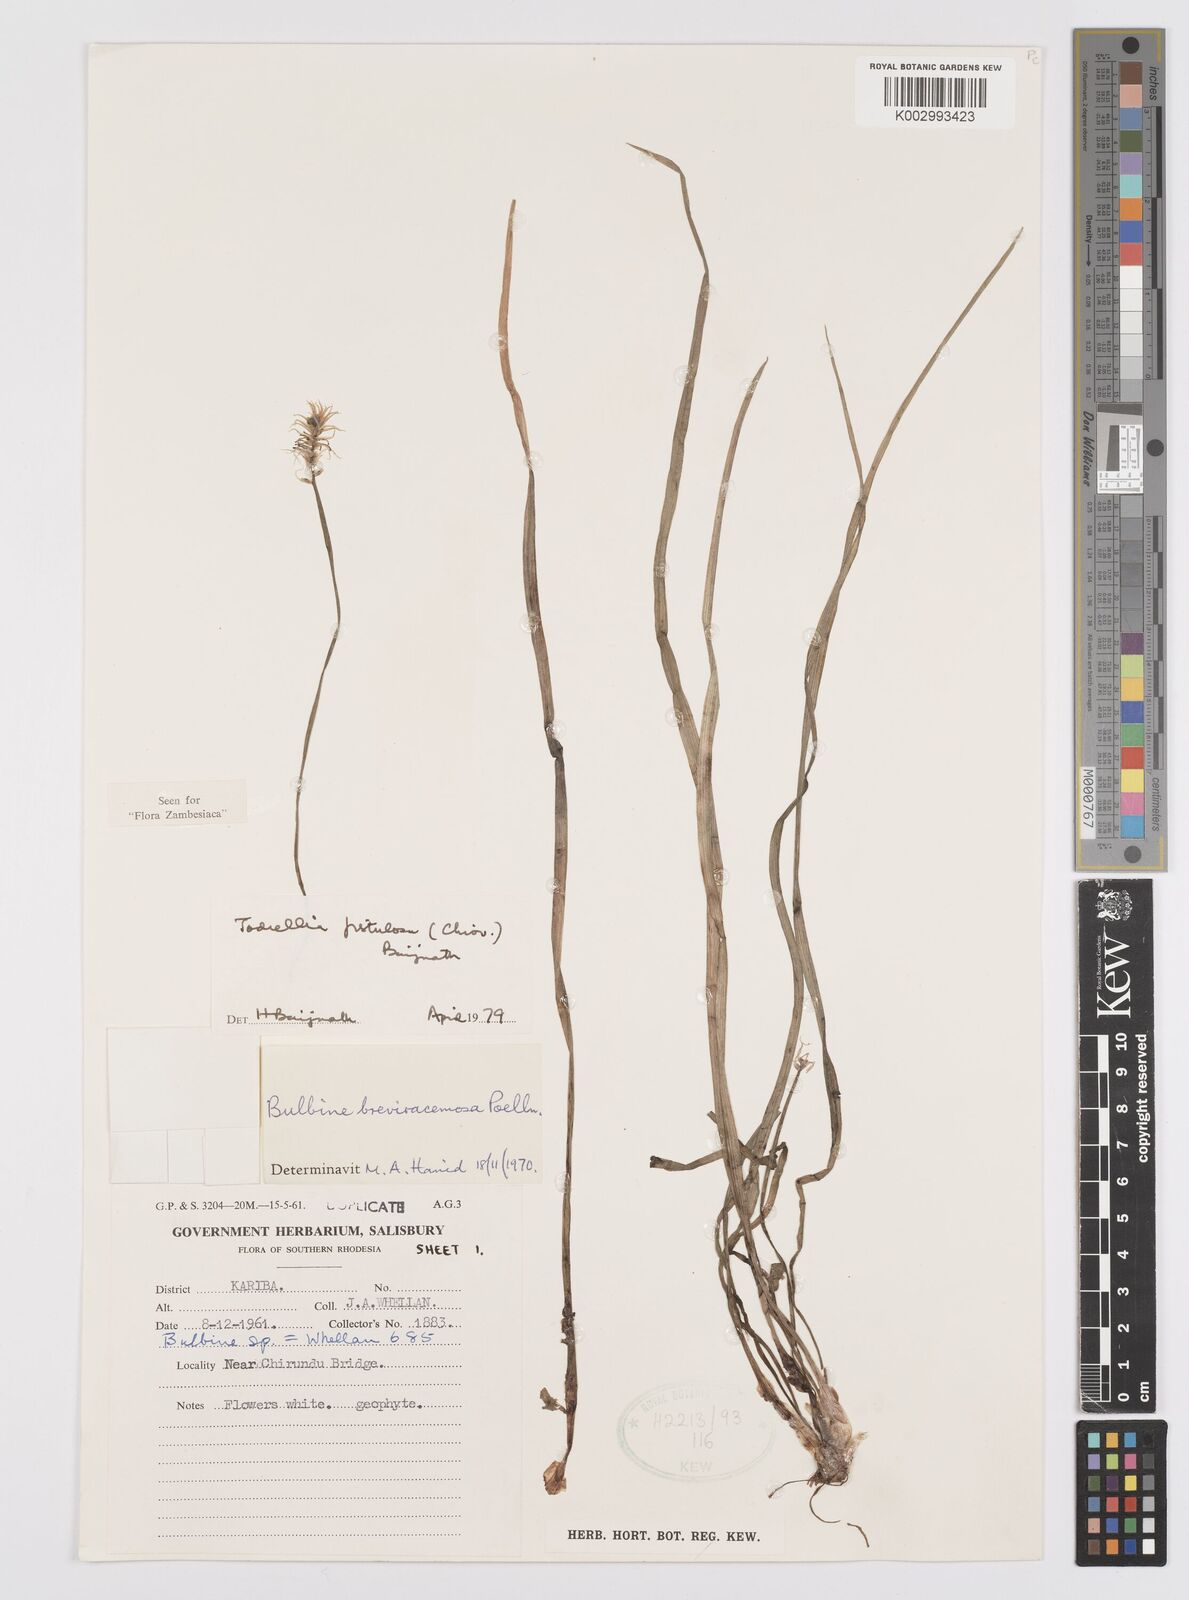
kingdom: Plantae
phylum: Tracheophyta
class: Liliopsida
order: Asparagales
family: Asphodelaceae
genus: Bulbine
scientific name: Bulbine fistulosa
